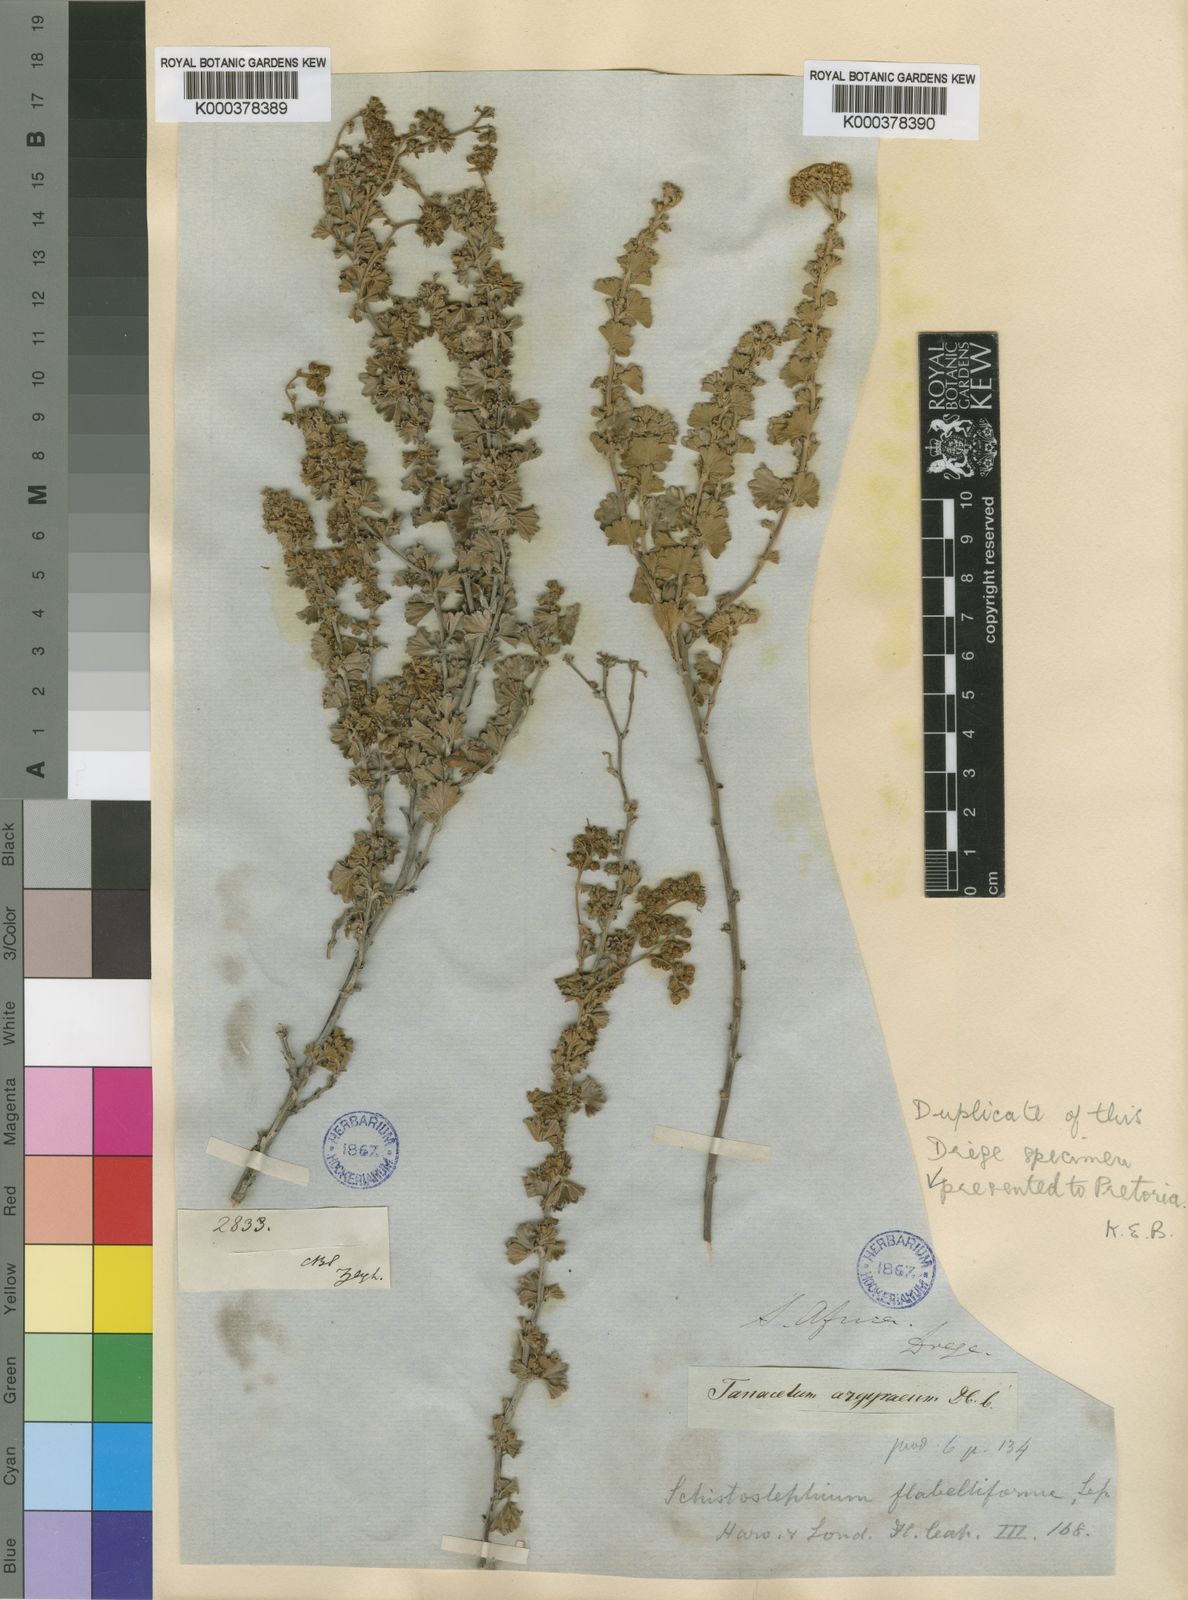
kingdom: Plantae
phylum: Tracheophyta
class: Magnoliopsida
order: Asterales
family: Asteraceae
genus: Schistostephium
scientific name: Schistostephium flabelliforme
